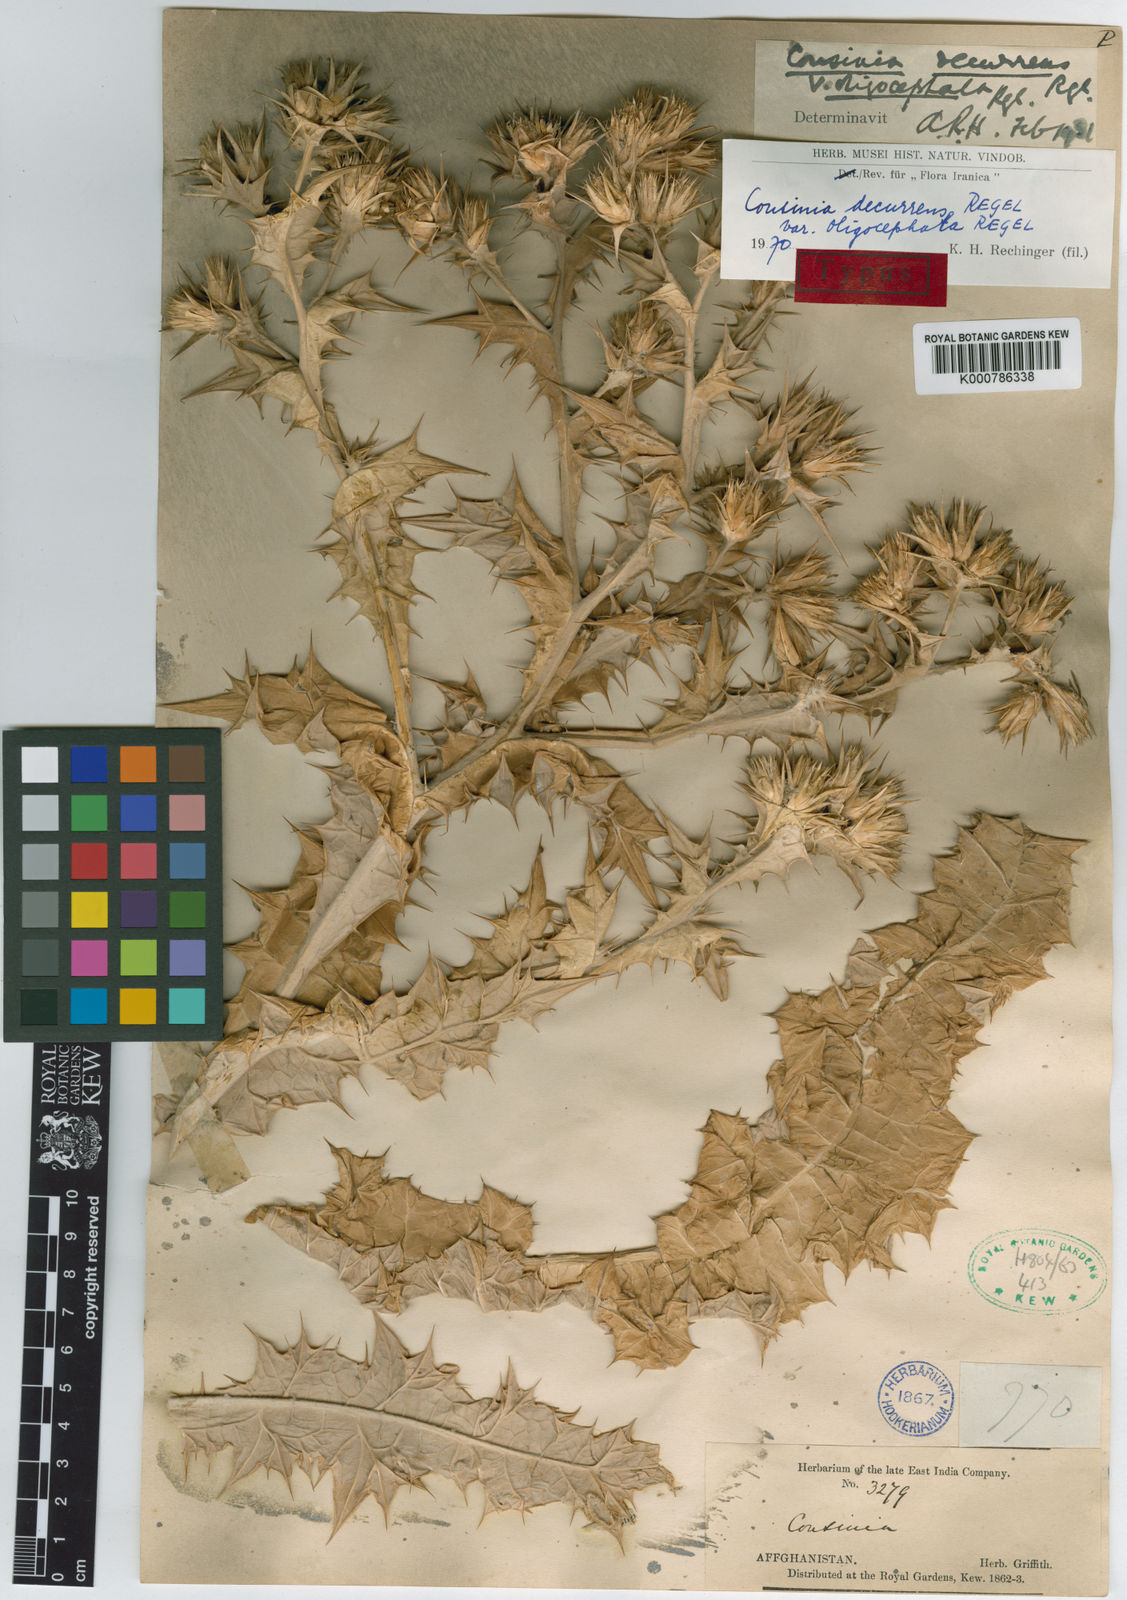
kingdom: Plantae
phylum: Tracheophyta
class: Magnoliopsida
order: Asterales
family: Asteraceae
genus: Cousinia
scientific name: Cousinia decumbens
